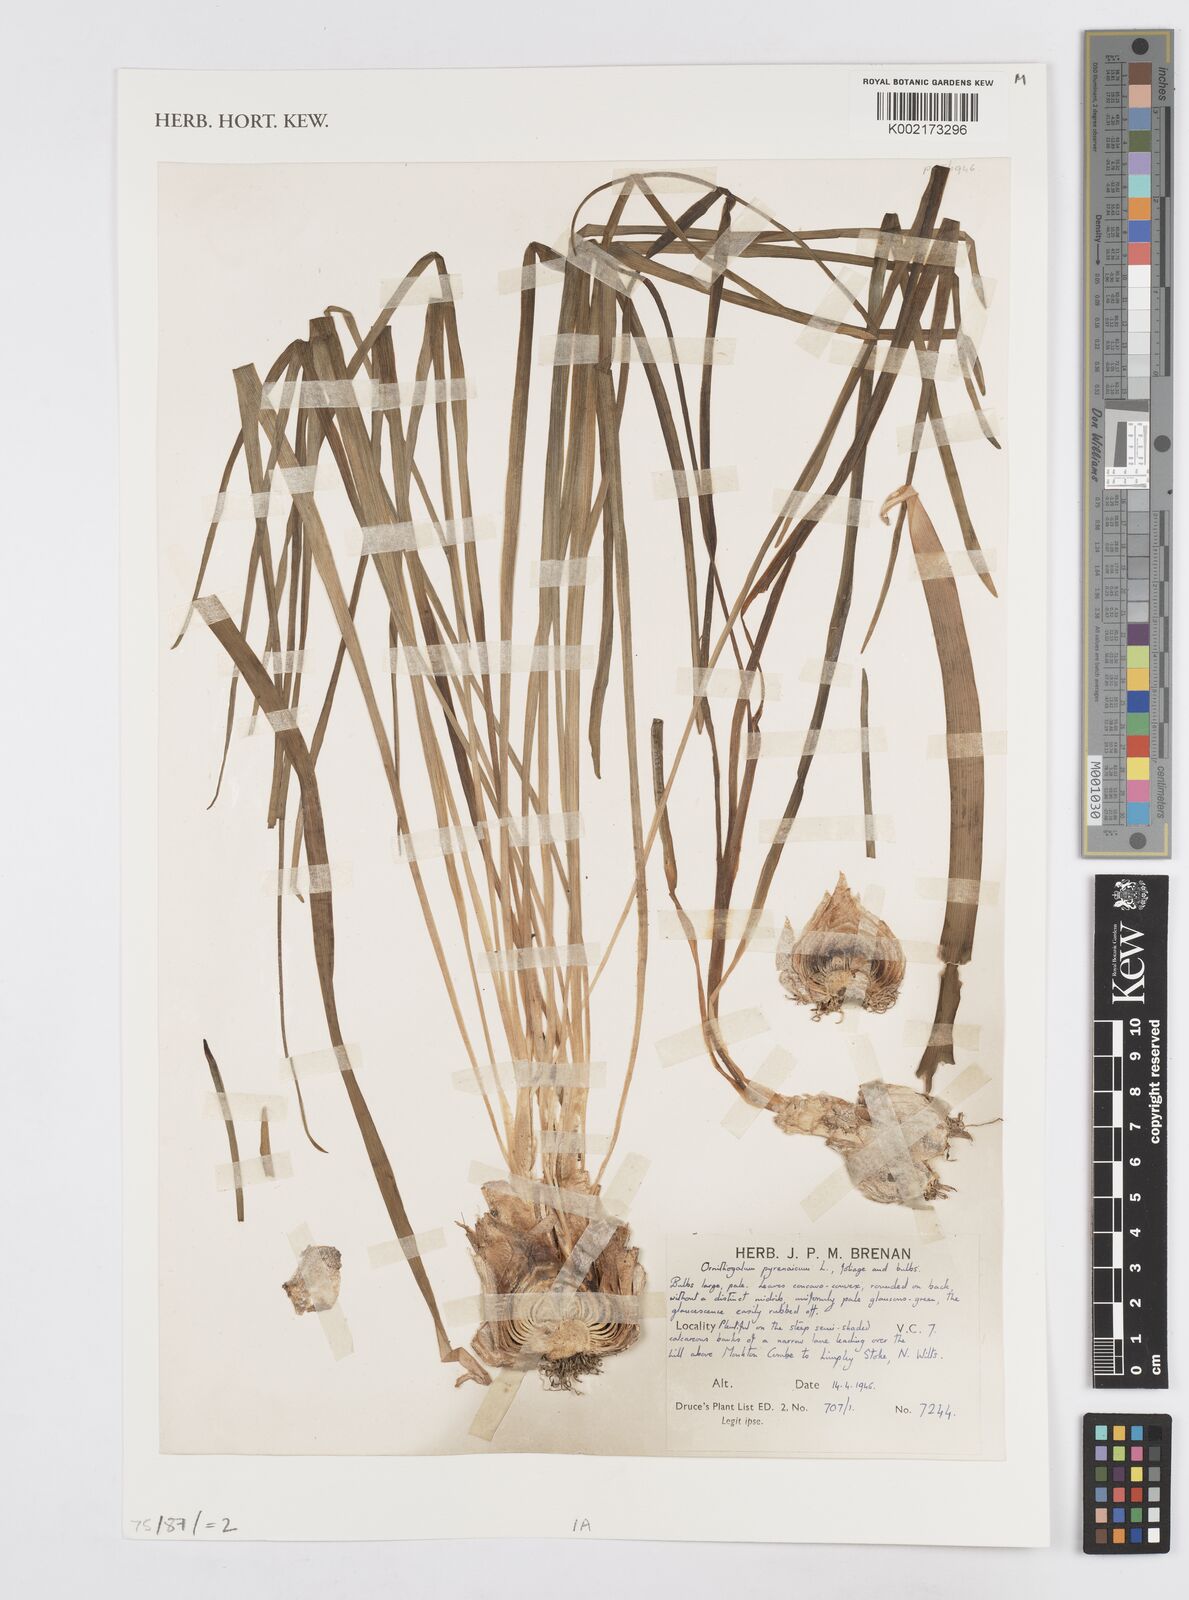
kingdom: Plantae
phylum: Tracheophyta
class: Liliopsida
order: Asparagales
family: Asparagaceae
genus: Ornithogalum
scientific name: Ornithogalum sphaerocarpum
